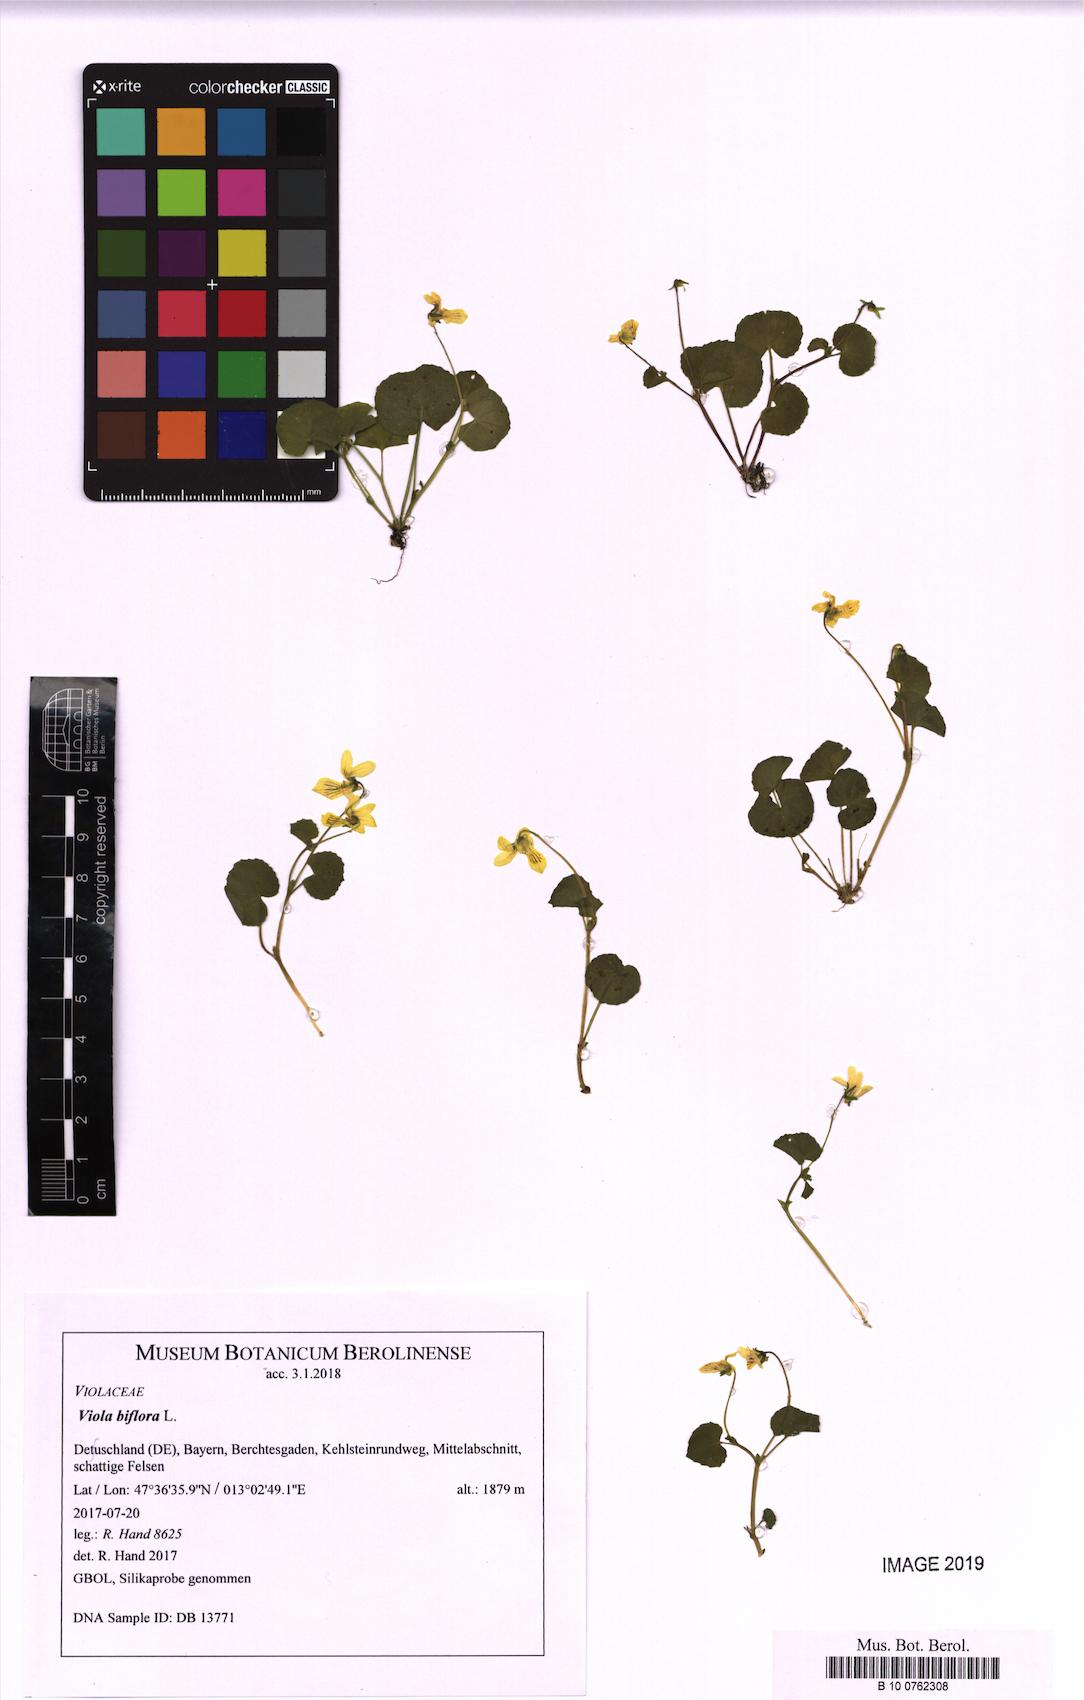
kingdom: Plantae
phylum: Tracheophyta
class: Magnoliopsida
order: Malpighiales
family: Violaceae
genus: Viola
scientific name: Viola biflora
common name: Alpine yellow violet
